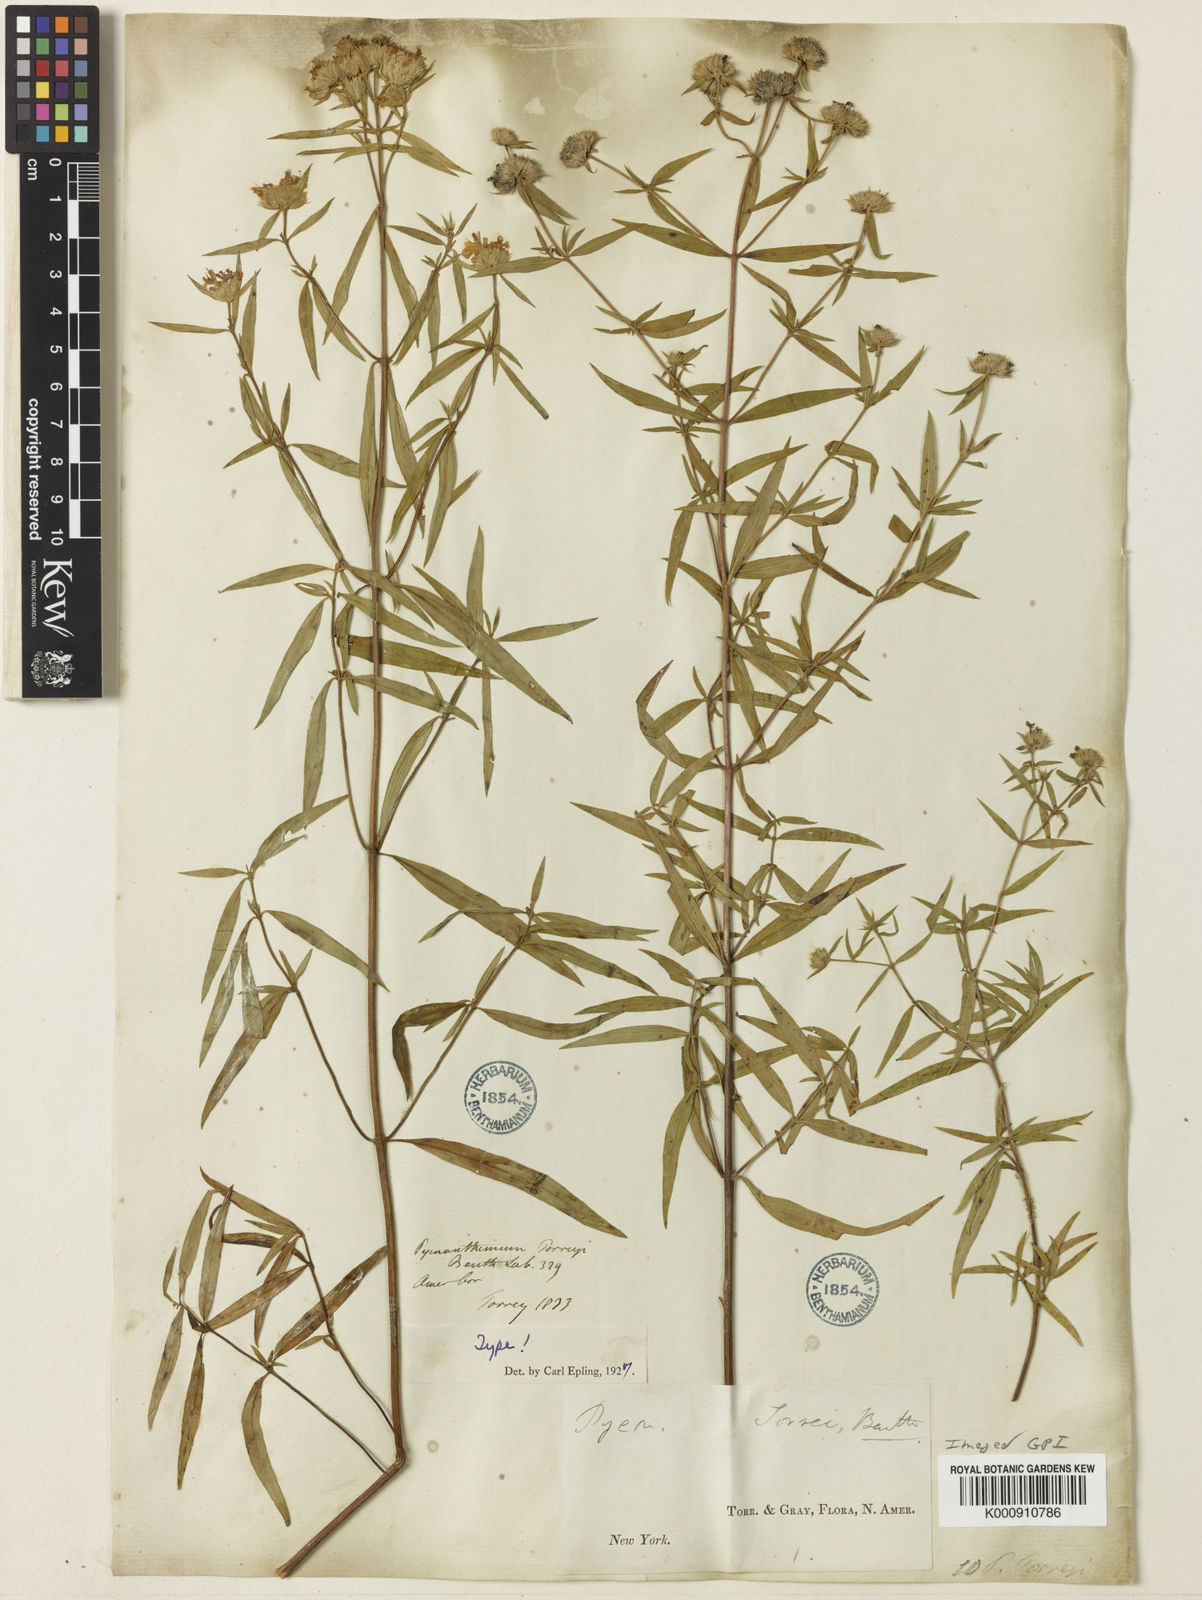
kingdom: Plantae
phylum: Tracheophyta
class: Magnoliopsida
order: Lamiales
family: Lamiaceae
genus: Pycnanthemum
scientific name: Pycnanthemum torreyi
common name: Torrey's mountain-mint
